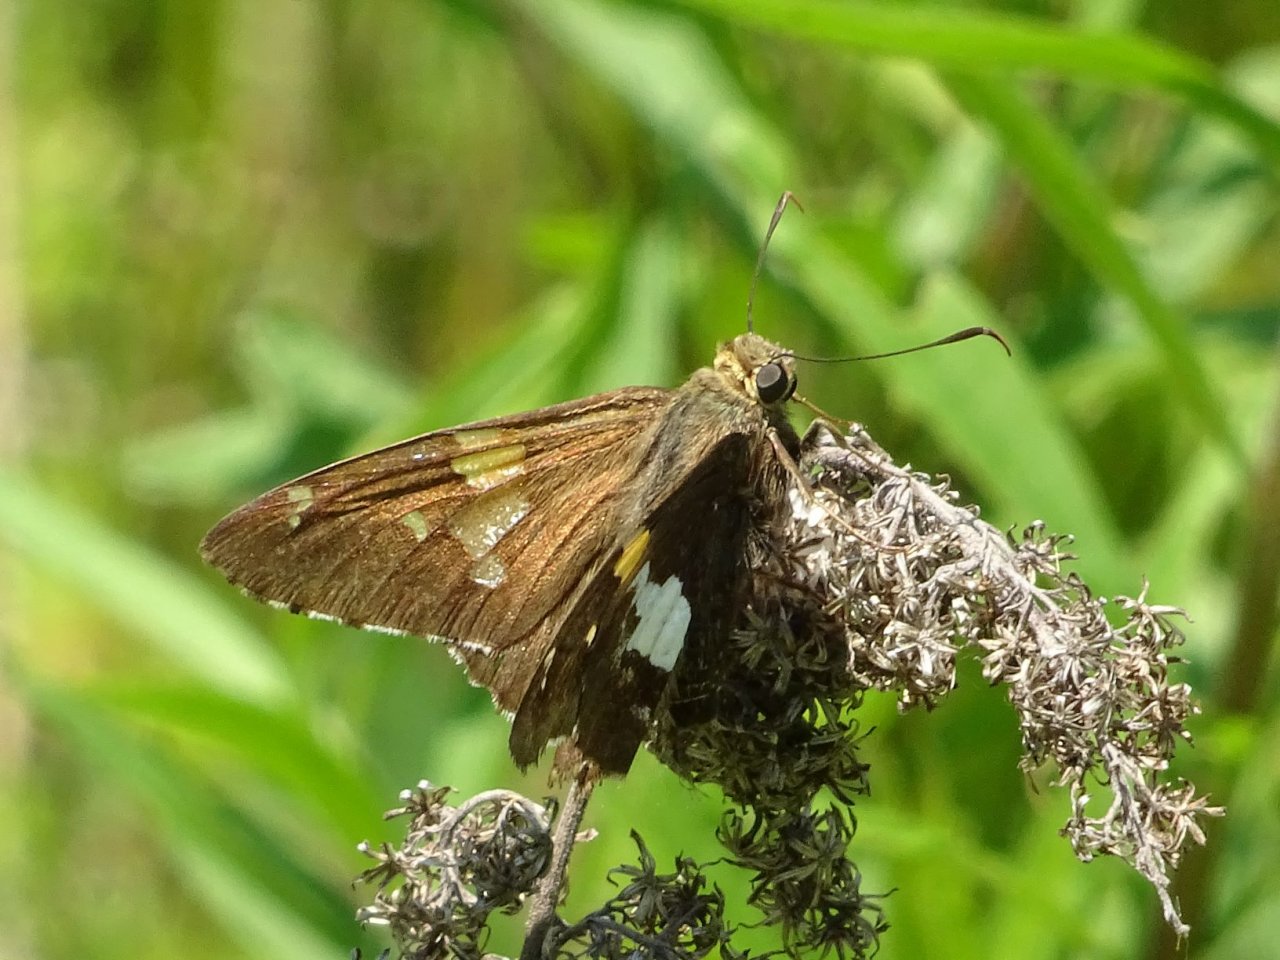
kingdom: Animalia
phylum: Arthropoda
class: Insecta
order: Lepidoptera
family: Hesperiidae
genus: Epargyreus
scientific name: Epargyreus clarus
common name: Silver-spotted Skipper
